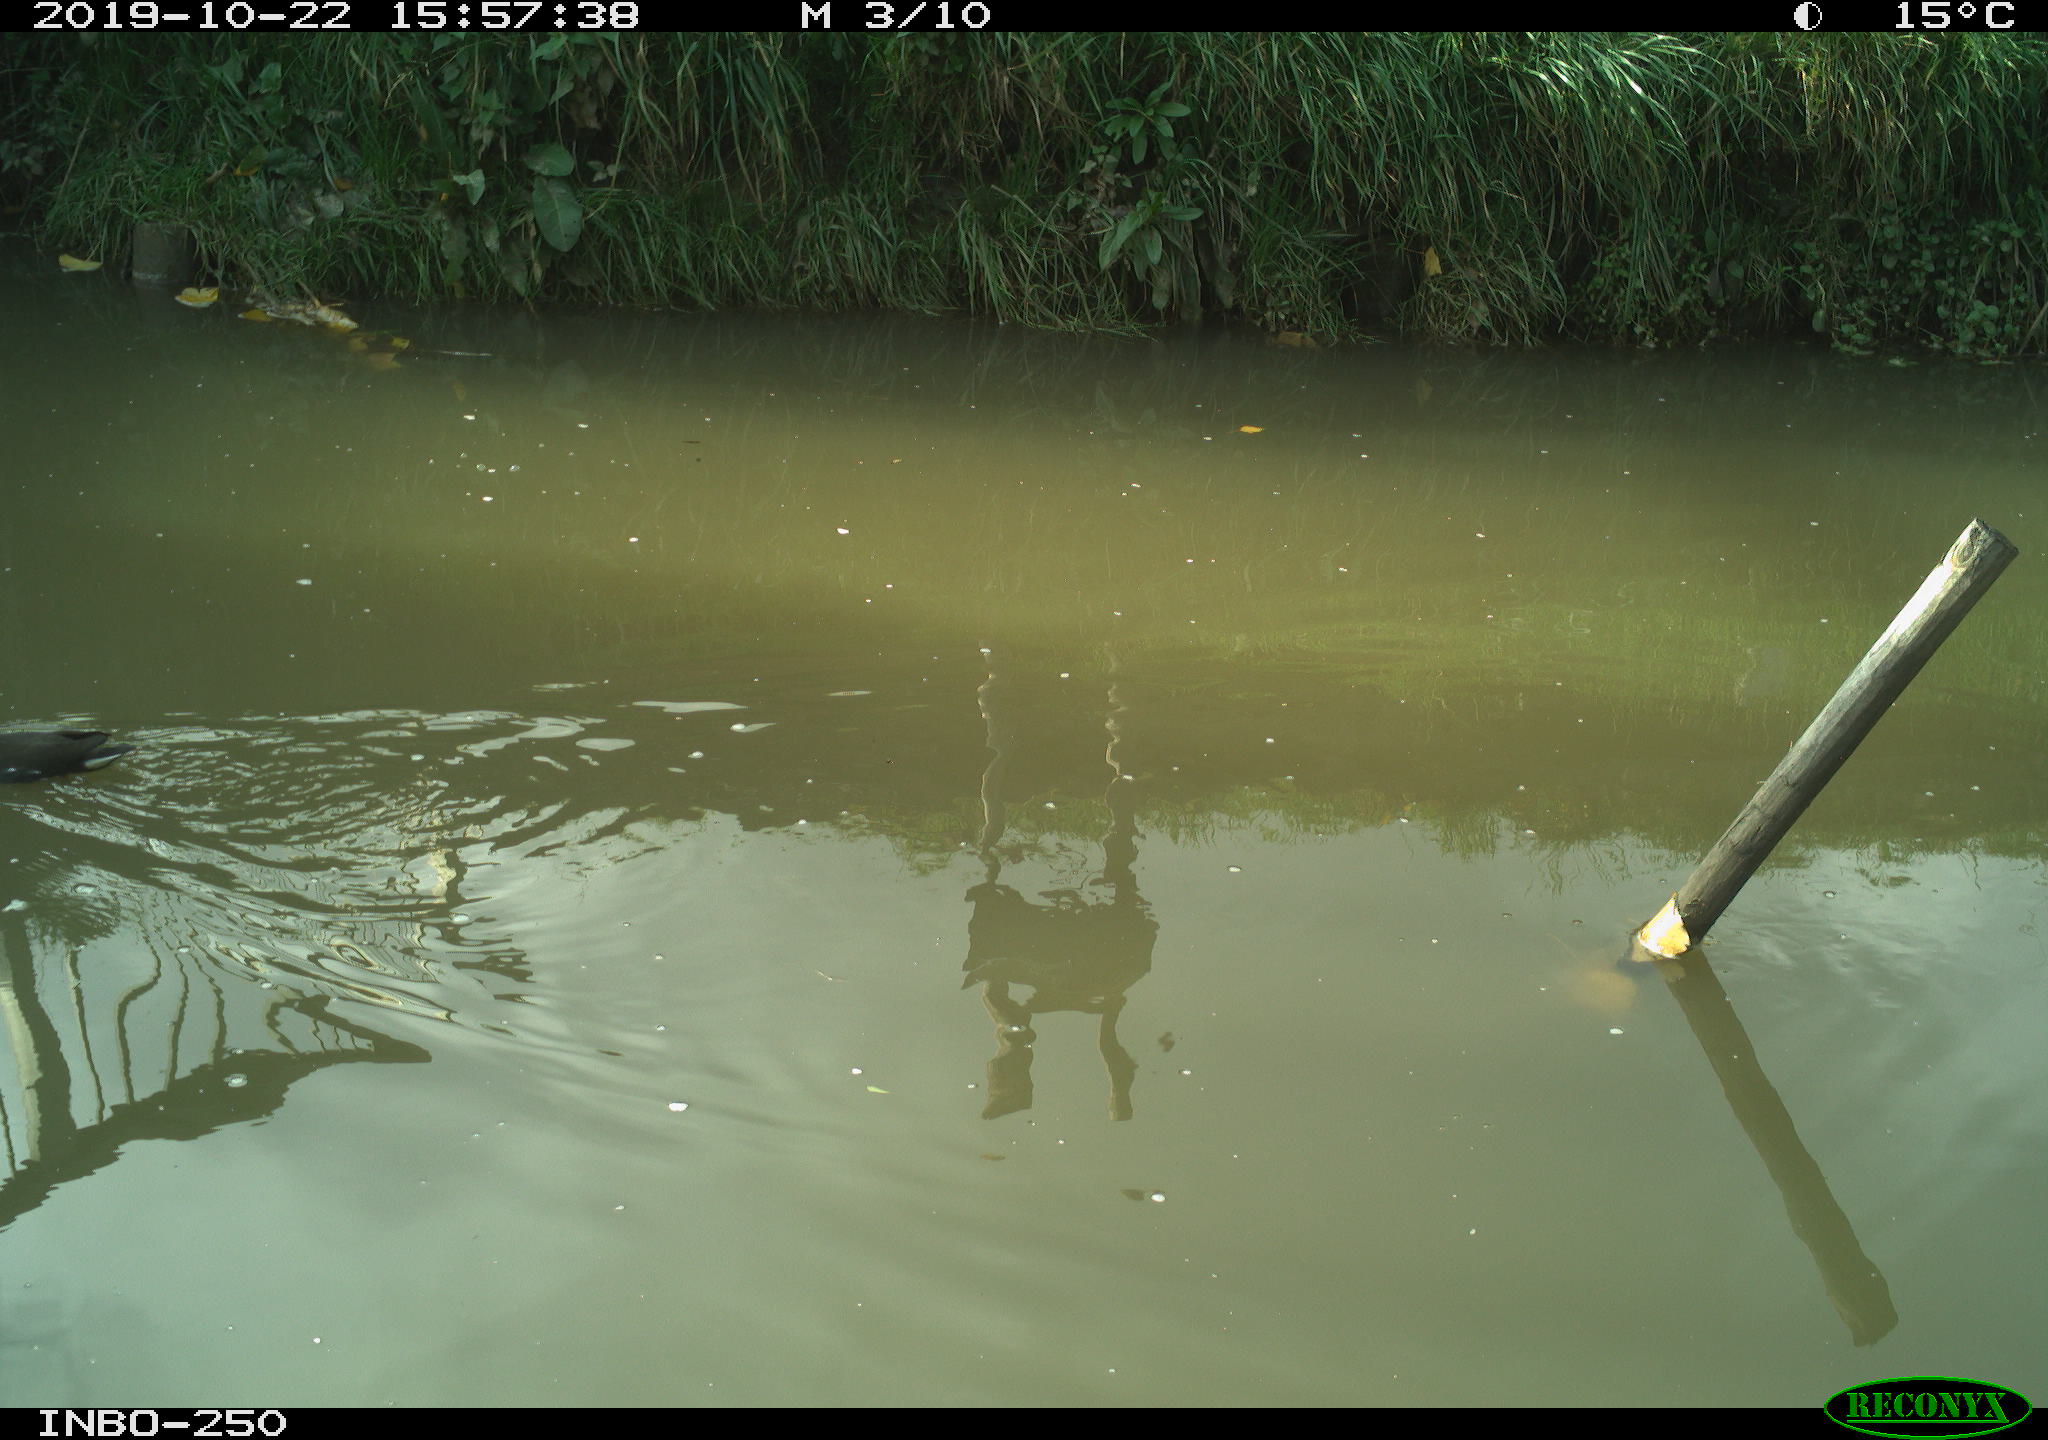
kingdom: Animalia
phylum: Chordata
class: Aves
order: Gruiformes
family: Rallidae
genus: Gallinula
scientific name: Gallinula chloropus
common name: Common moorhen
